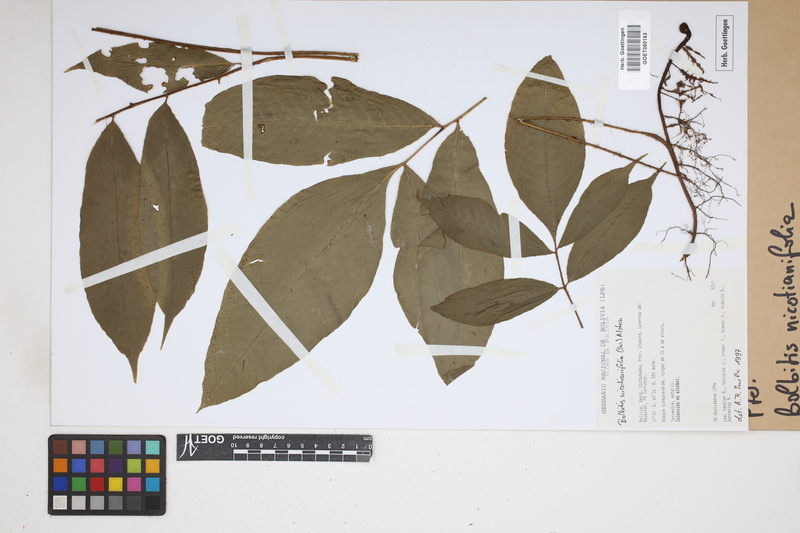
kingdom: Plantae
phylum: Tracheophyta
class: Polypodiopsida
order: Polypodiales
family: Dryopteridaceae
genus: Mickelia
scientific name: Mickelia nicotianifolia
